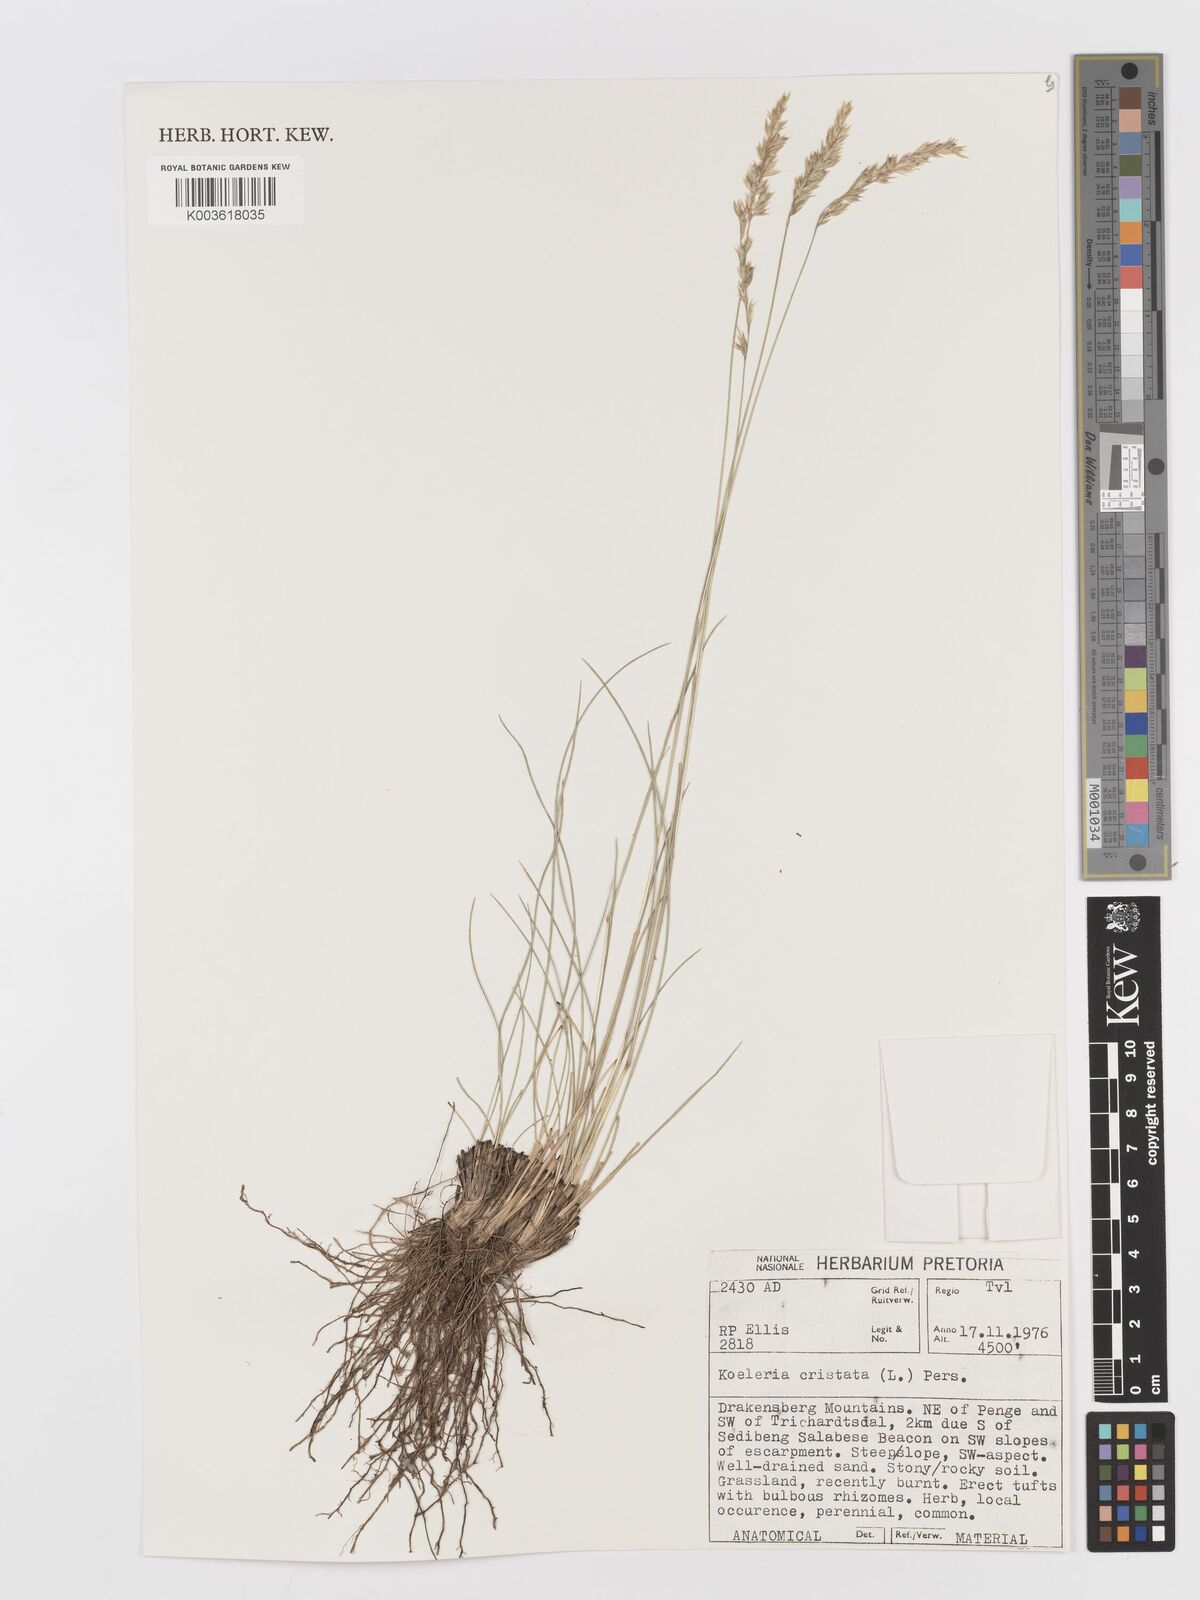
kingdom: Plantae
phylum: Tracheophyta
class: Liliopsida
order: Poales
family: Poaceae
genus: Koeleria
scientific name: Koeleria capensis
